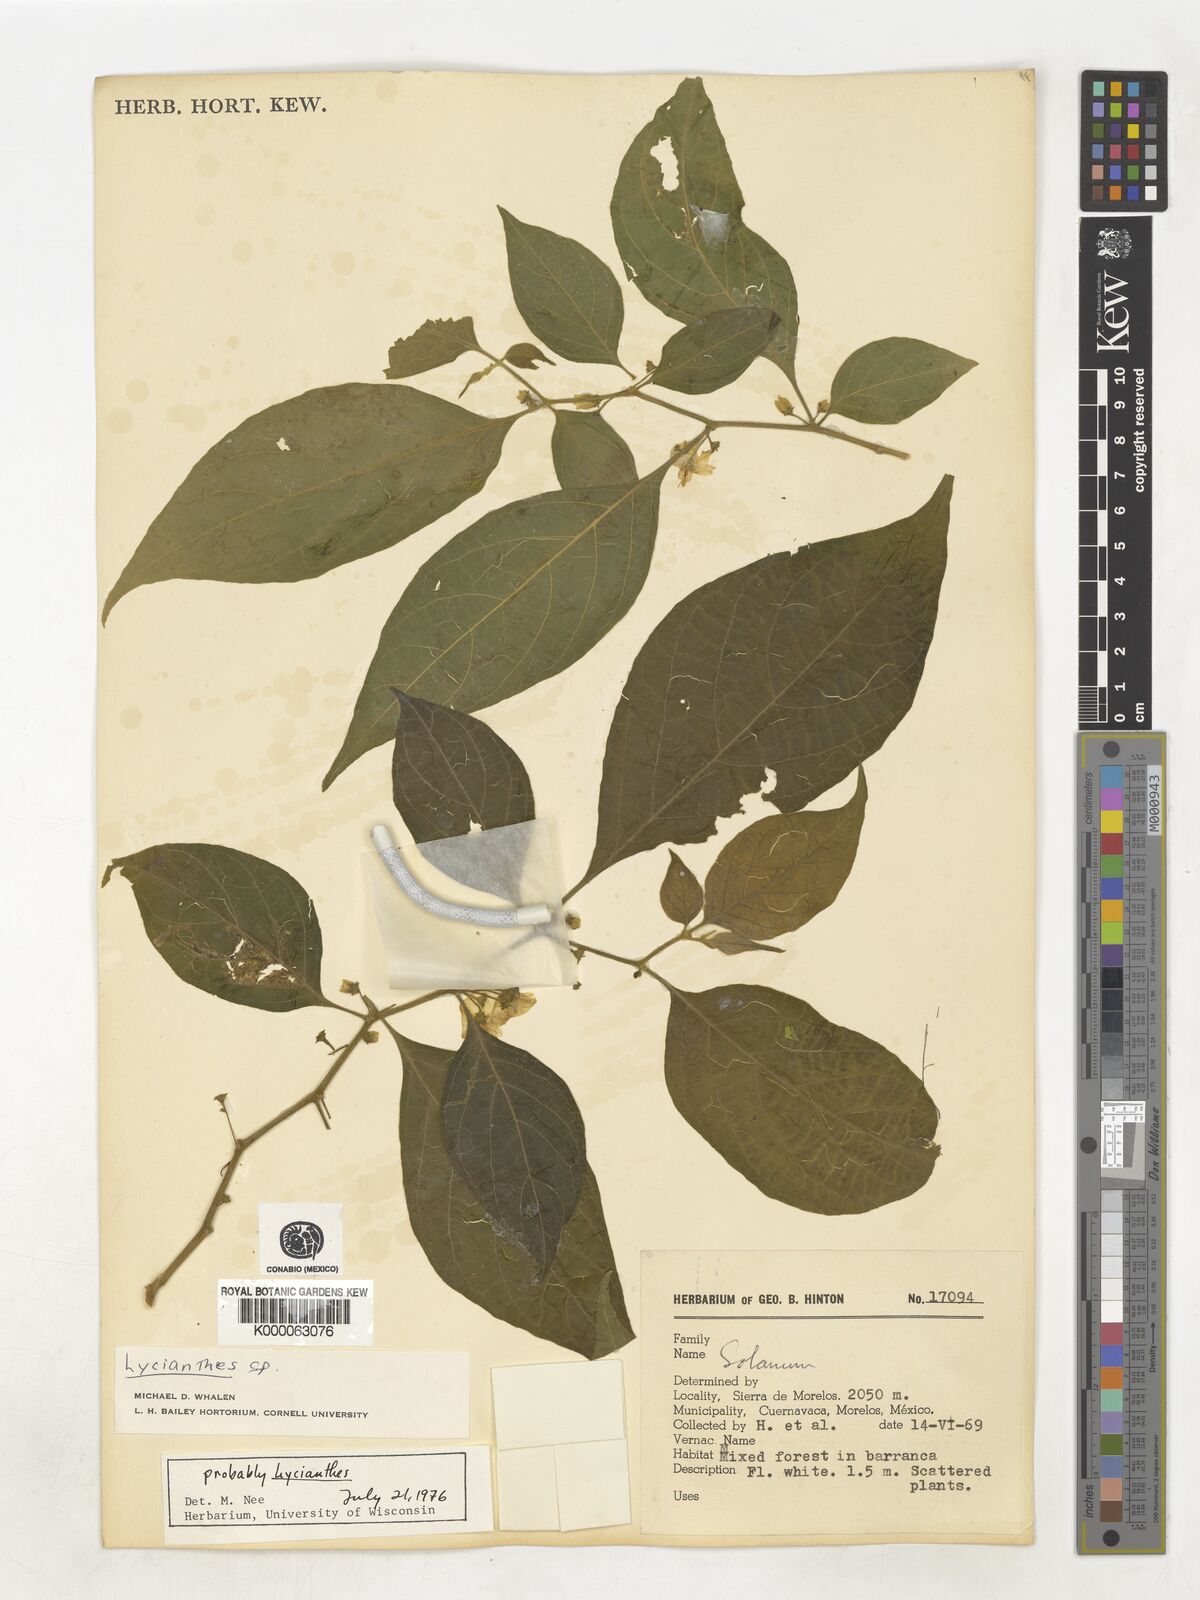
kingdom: Plantae
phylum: Tracheophyta
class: Magnoliopsida
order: Solanales
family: Solanaceae
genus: Lycianthes
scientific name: Lycianthes
